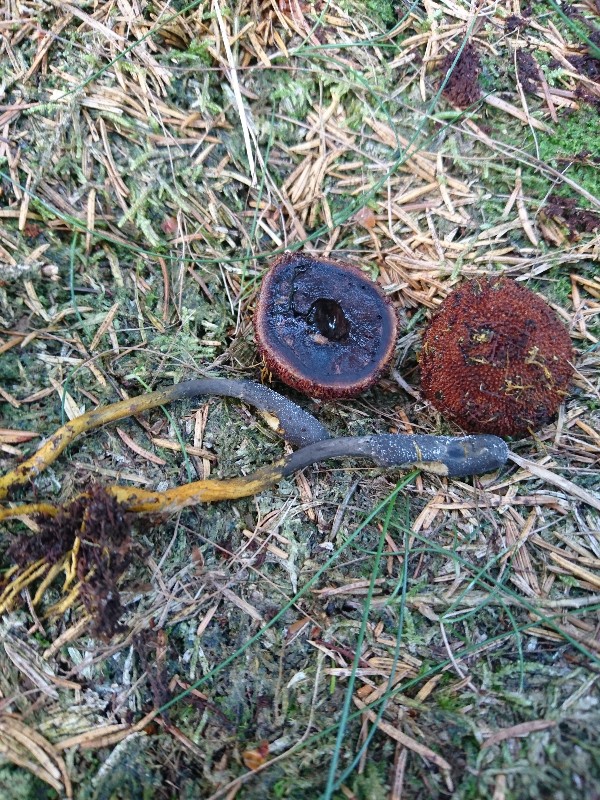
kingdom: Fungi
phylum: Ascomycota
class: Sordariomycetes
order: Hypocreales
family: Ophiocordycipitaceae
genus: Tolypocladium
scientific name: Tolypocladium ophioglossoides
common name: slank snyltekølle
